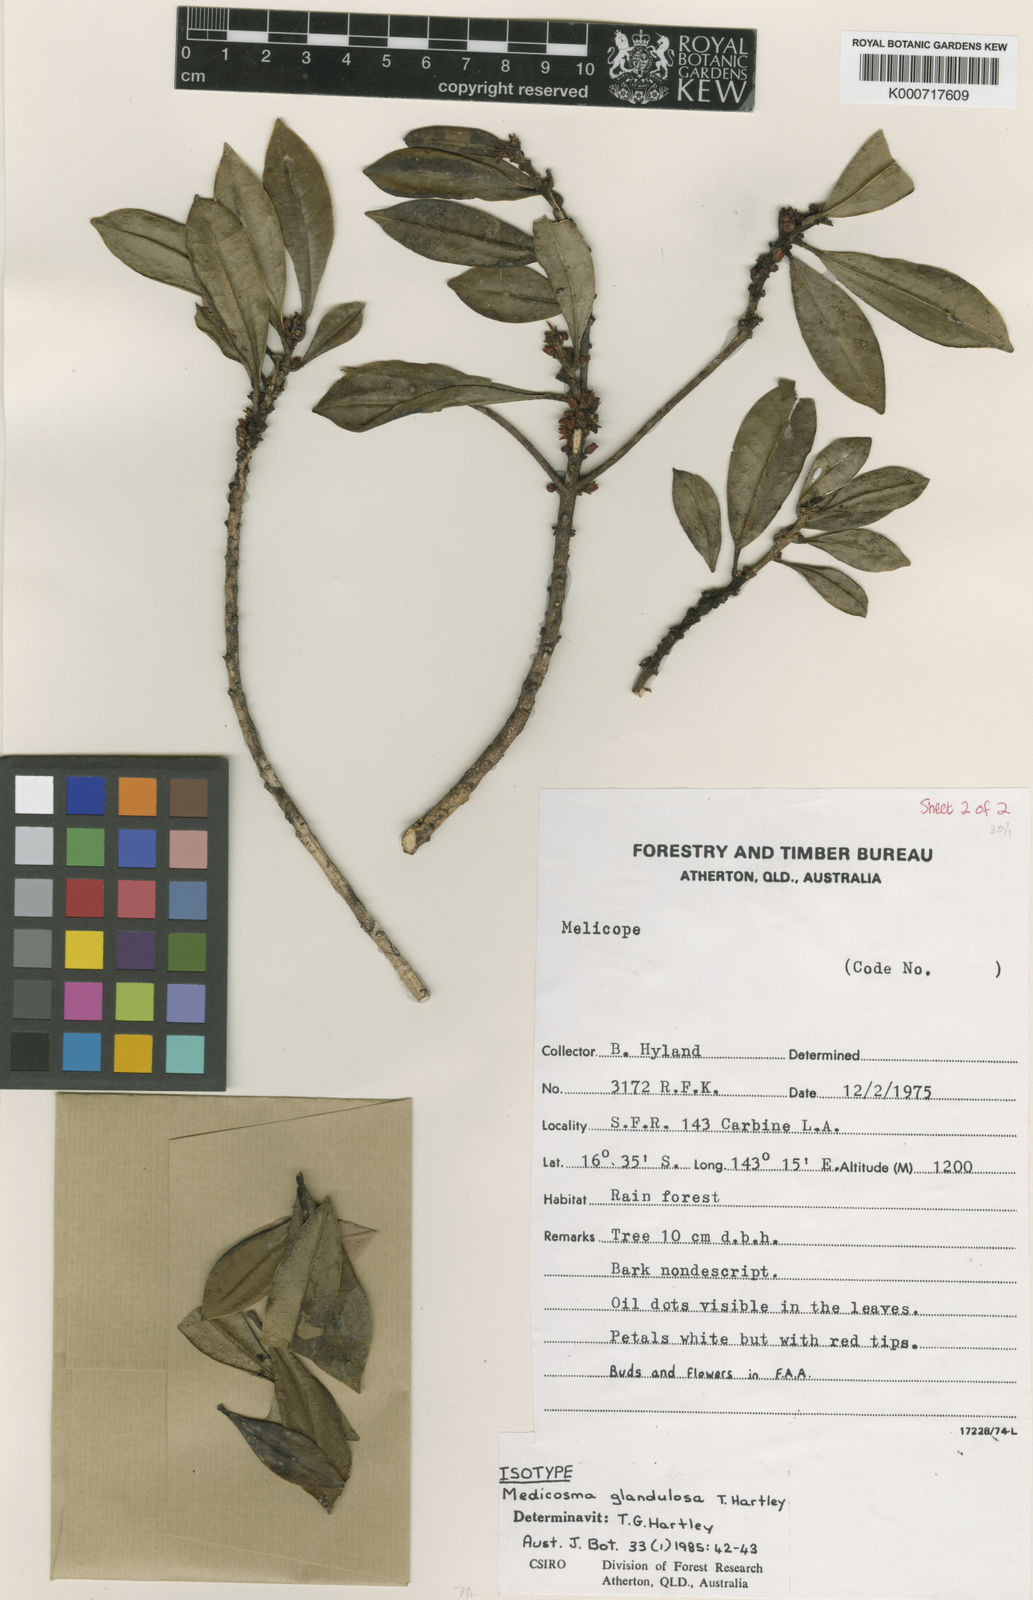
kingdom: Plantae
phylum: Tracheophyta
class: Magnoliopsida
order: Sapindales
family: Rutaceae
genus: Medicosma
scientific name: Medicosma glandulosa
